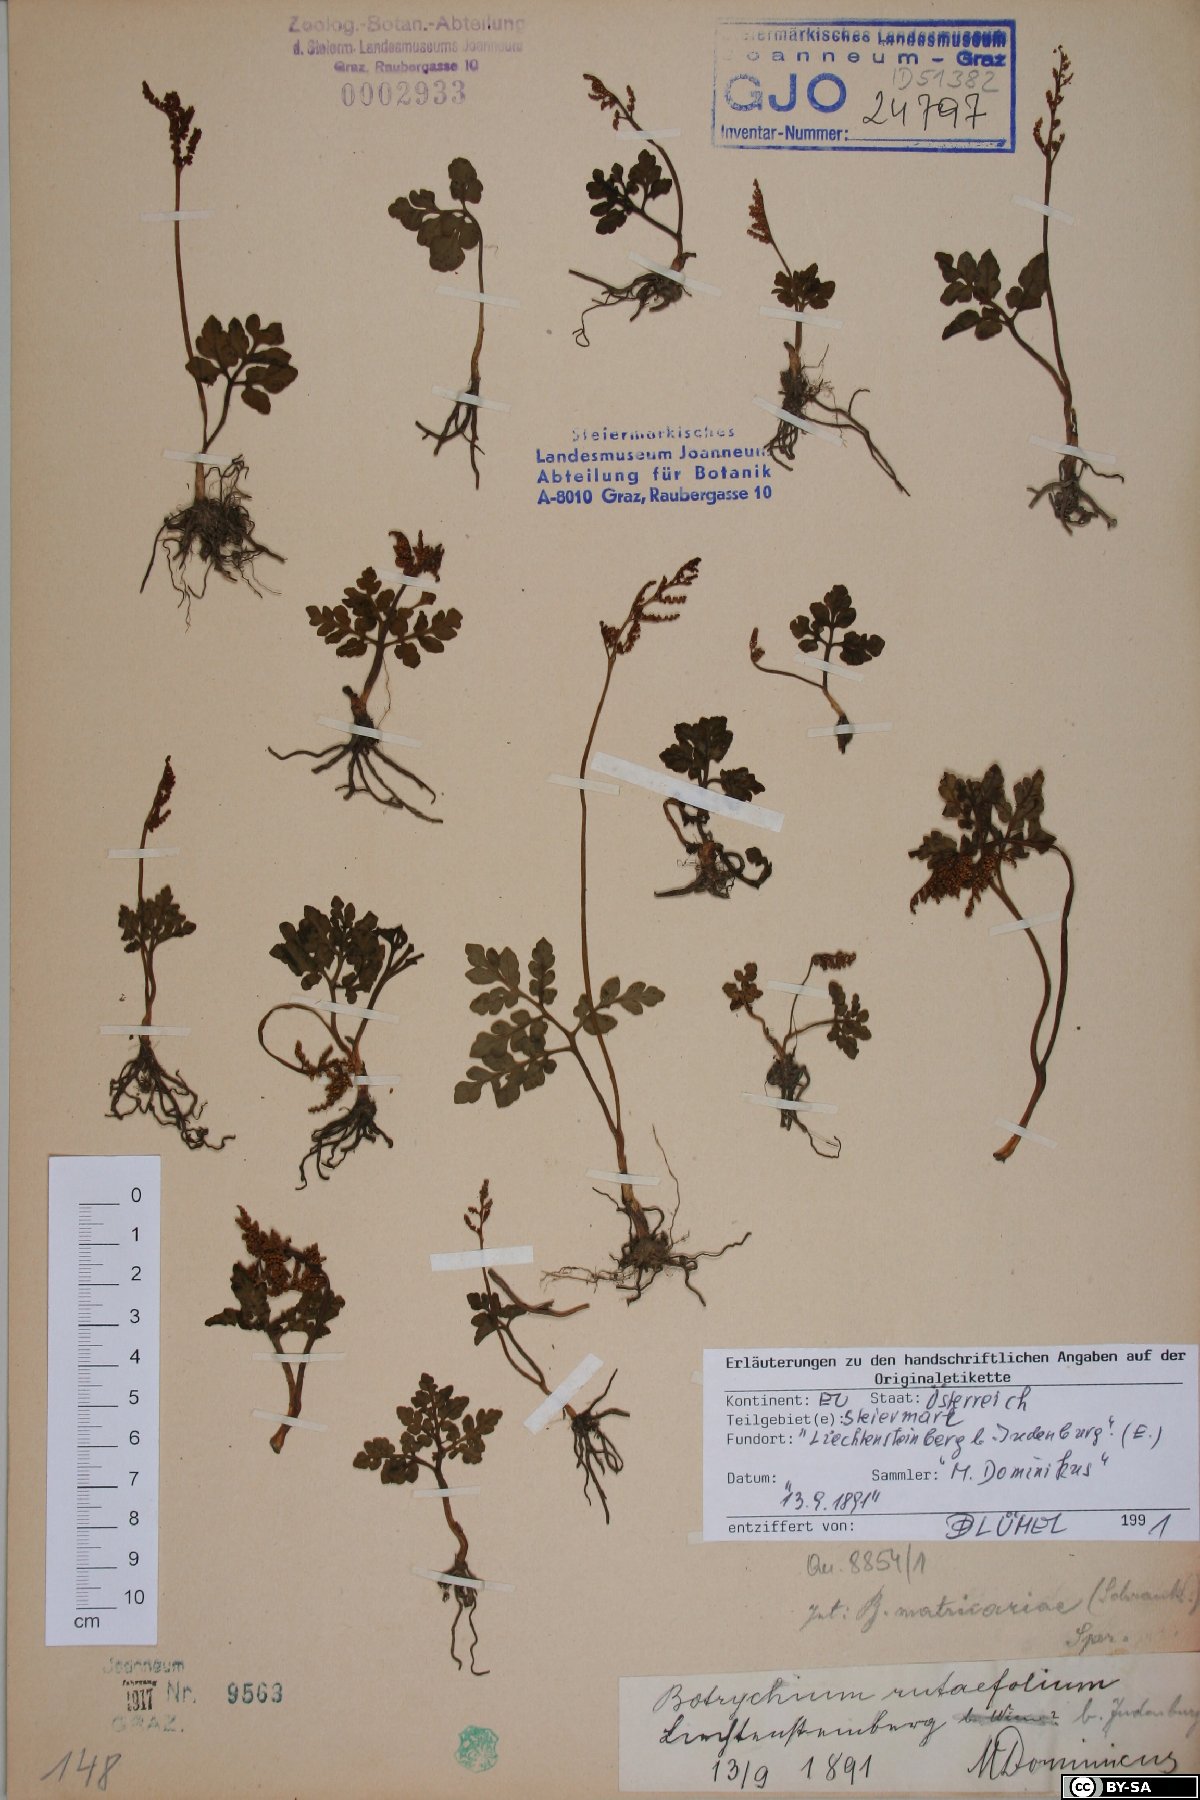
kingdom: Plantae
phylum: Tracheophyta
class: Polypodiopsida
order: Ophioglossales
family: Ophioglossaceae
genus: Sceptridium
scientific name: Sceptridium multifidum
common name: Leathery grape fern
